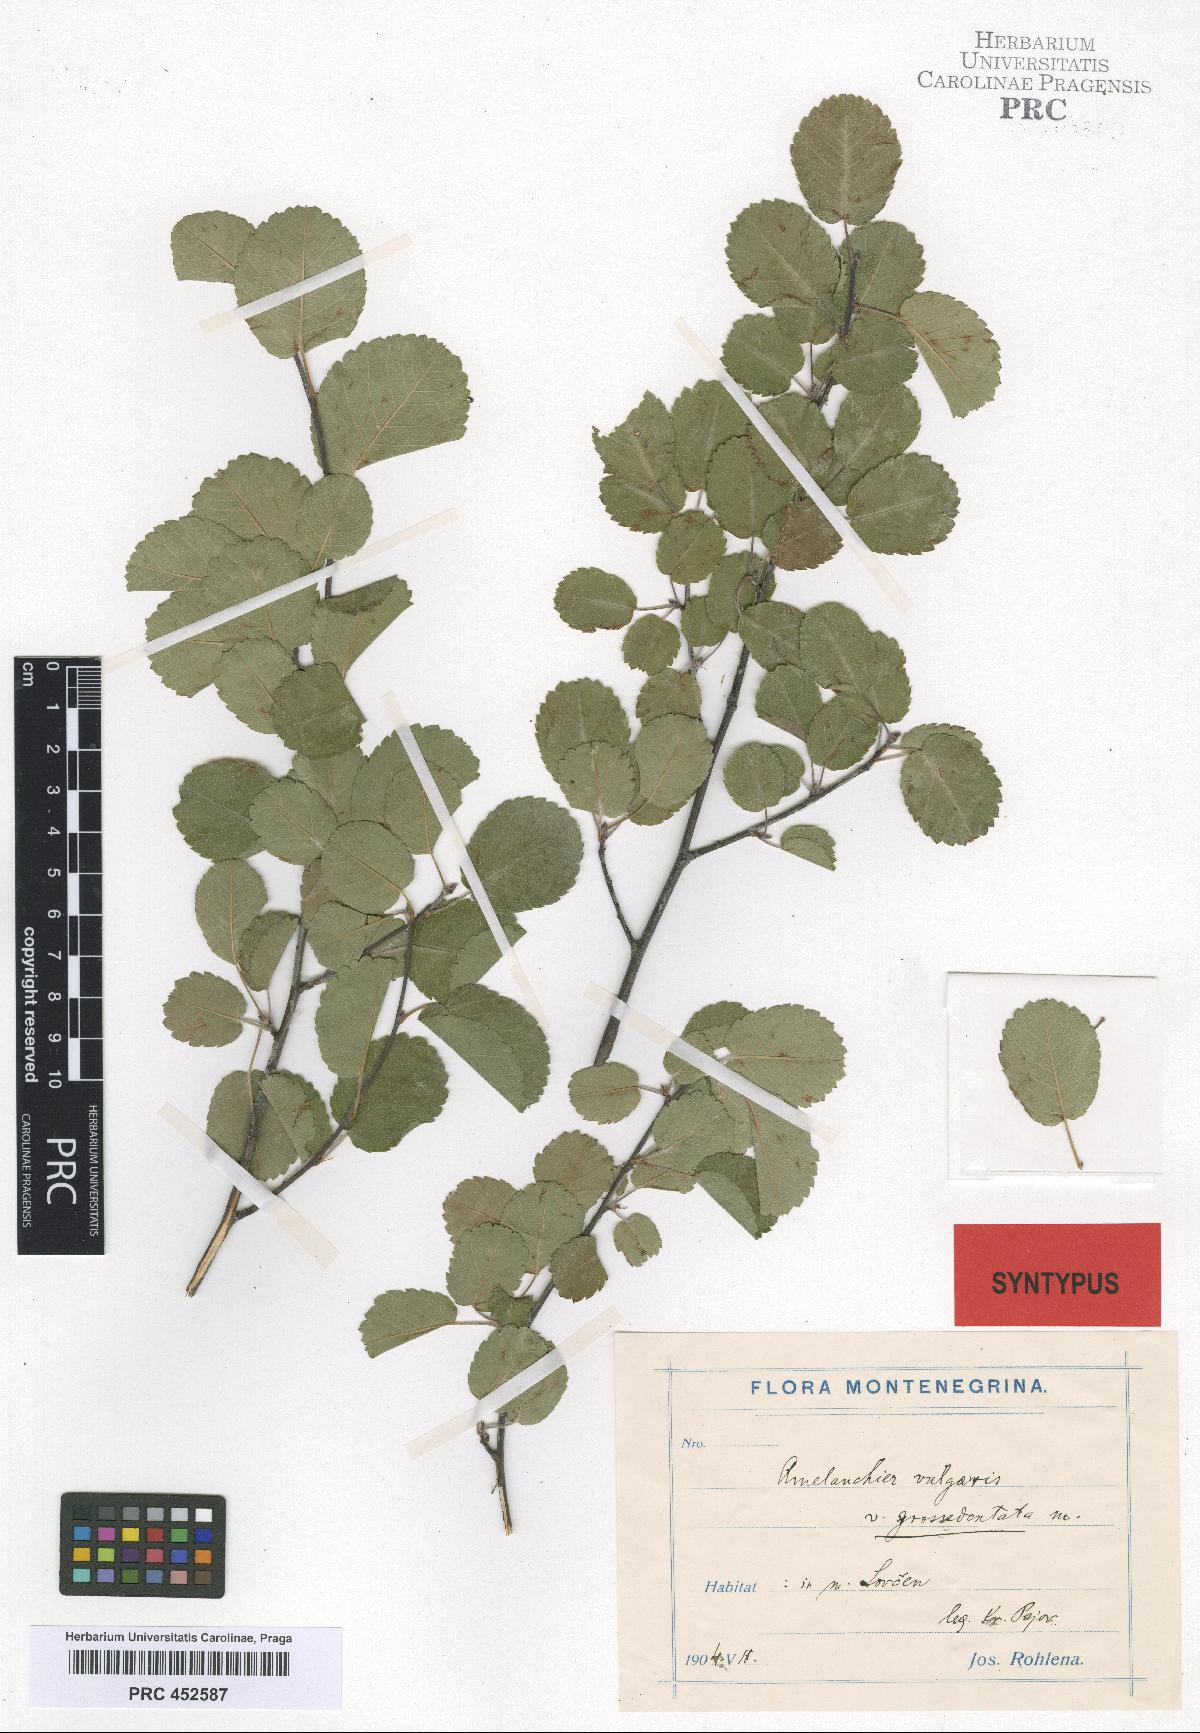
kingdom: Plantae
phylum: Tracheophyta
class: Magnoliopsida
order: Rosales
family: Rosaceae
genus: Amelanchier
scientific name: Amelanchier ovalis
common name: Serviceberry
